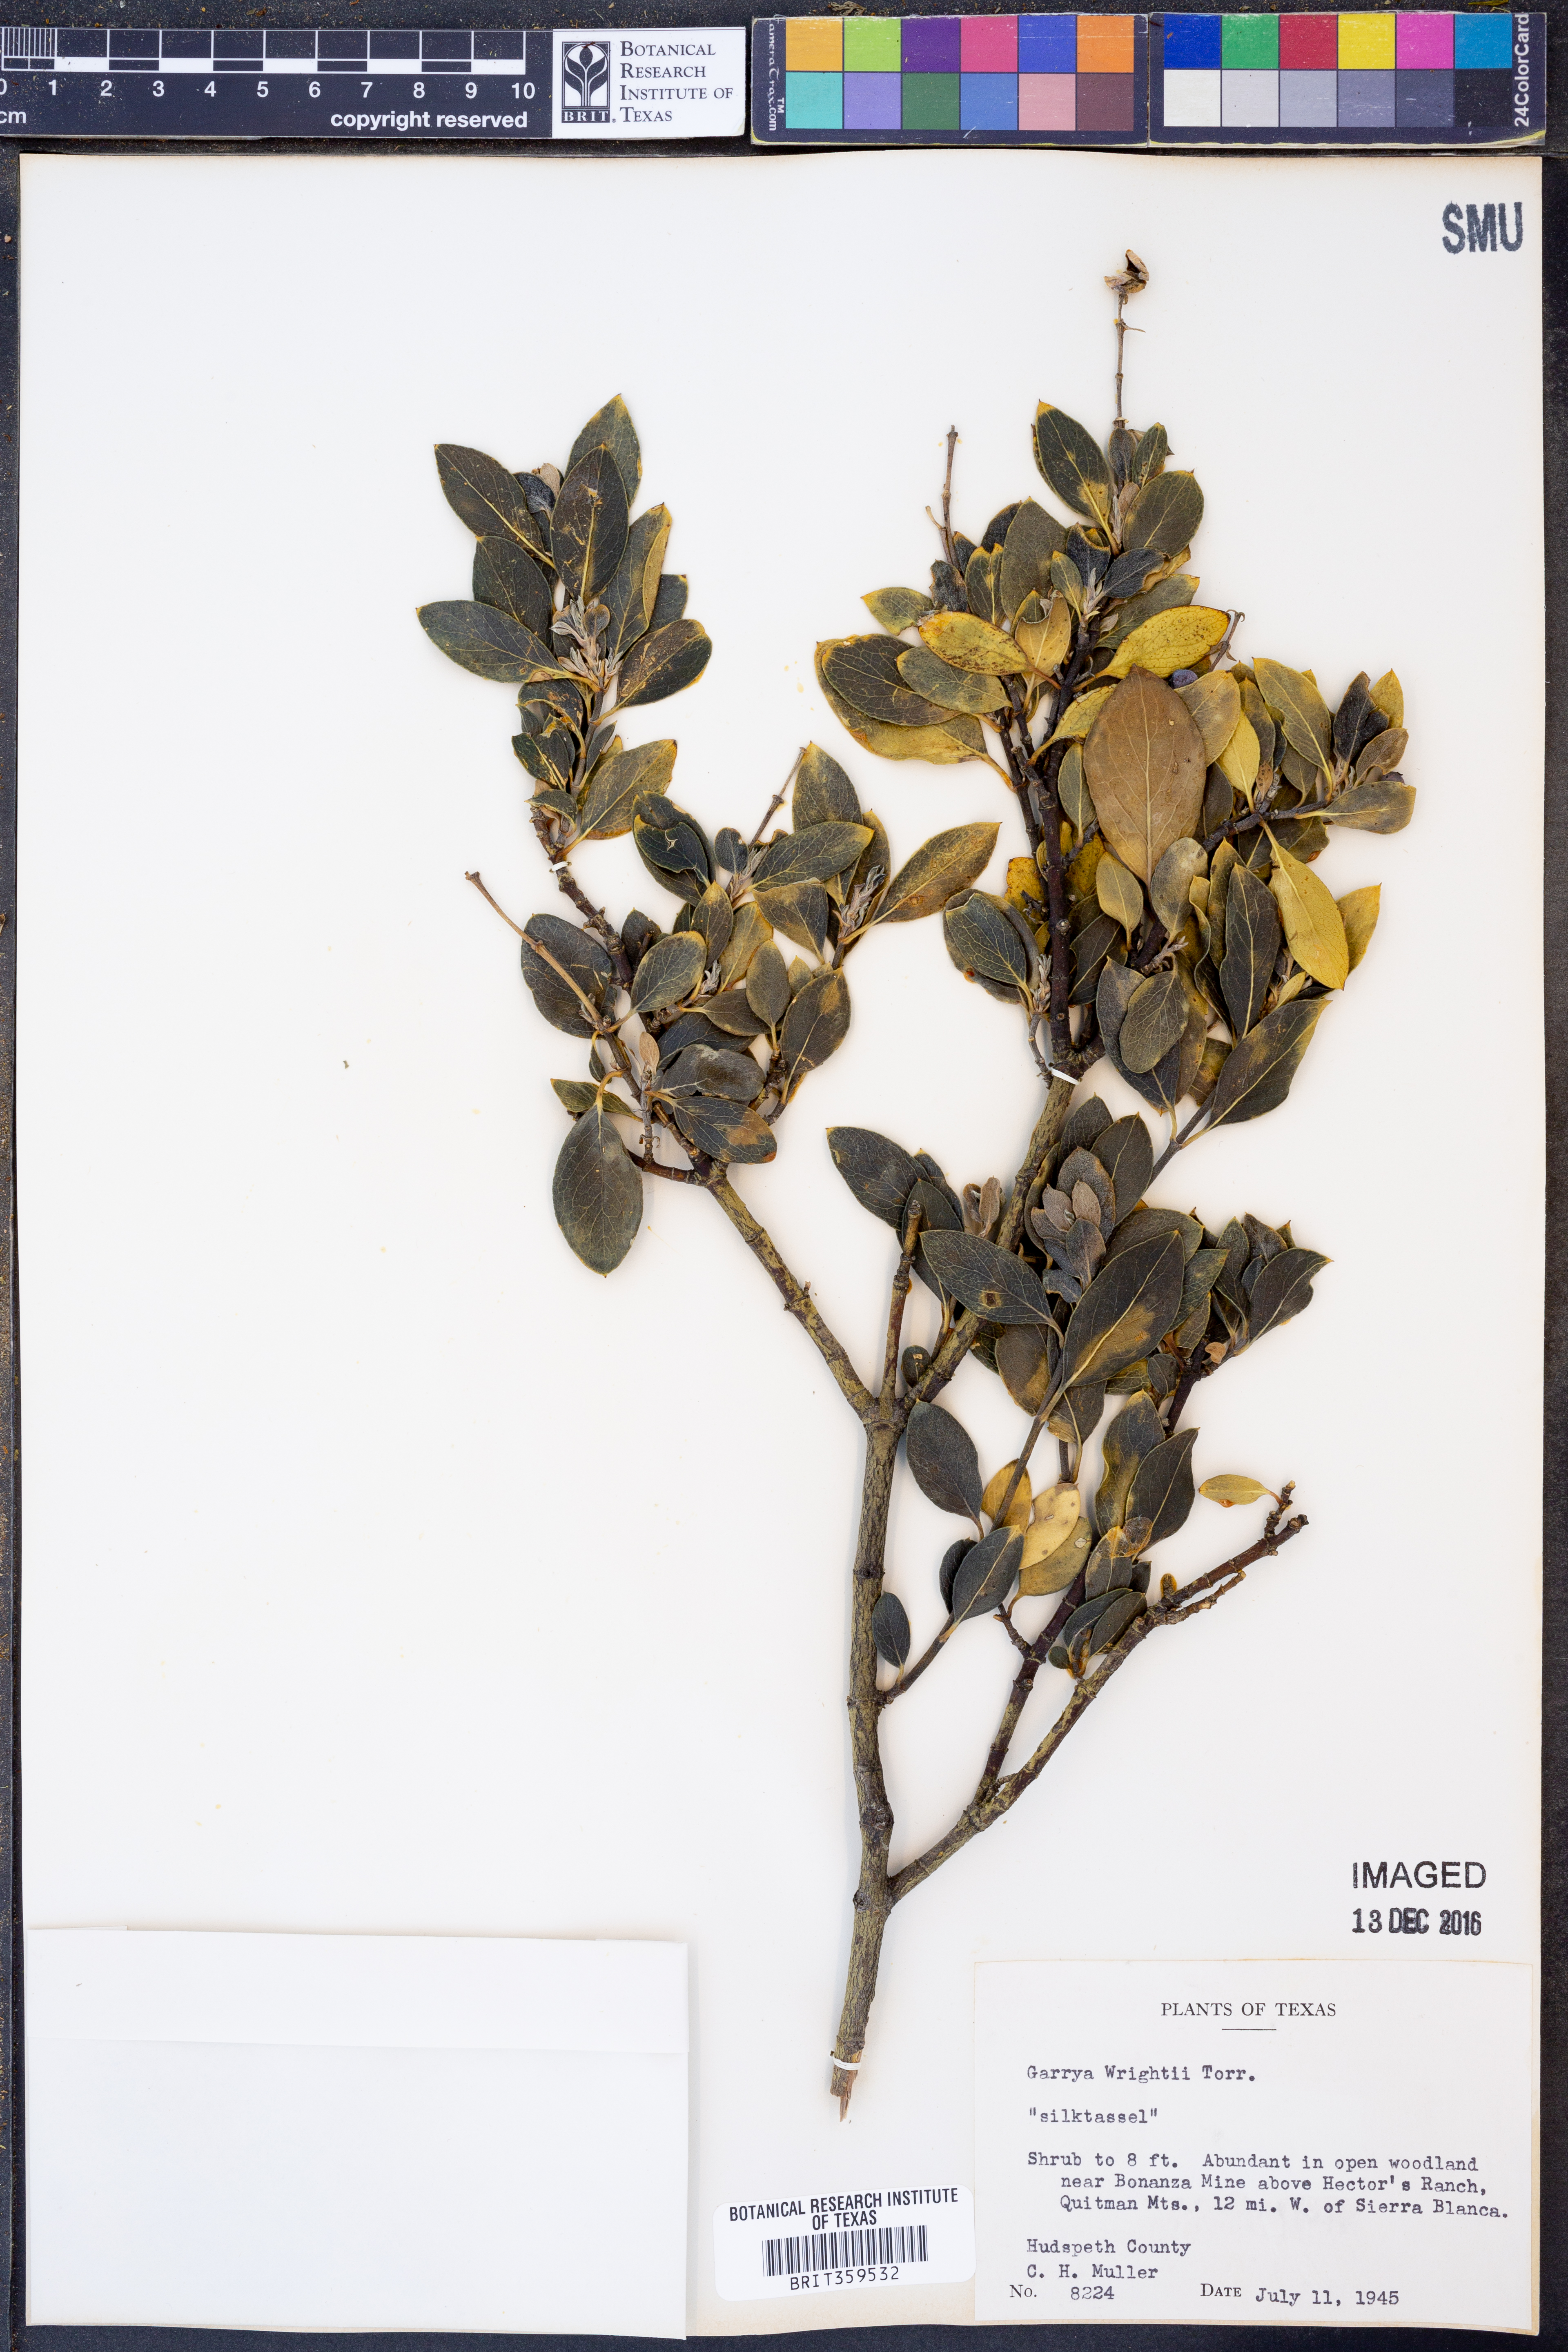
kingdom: Plantae
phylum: Tracheophyta
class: Magnoliopsida
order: Garryales
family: Garryaceae
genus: Garrya
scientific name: Garrya wrightii
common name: Wright's silktassel
